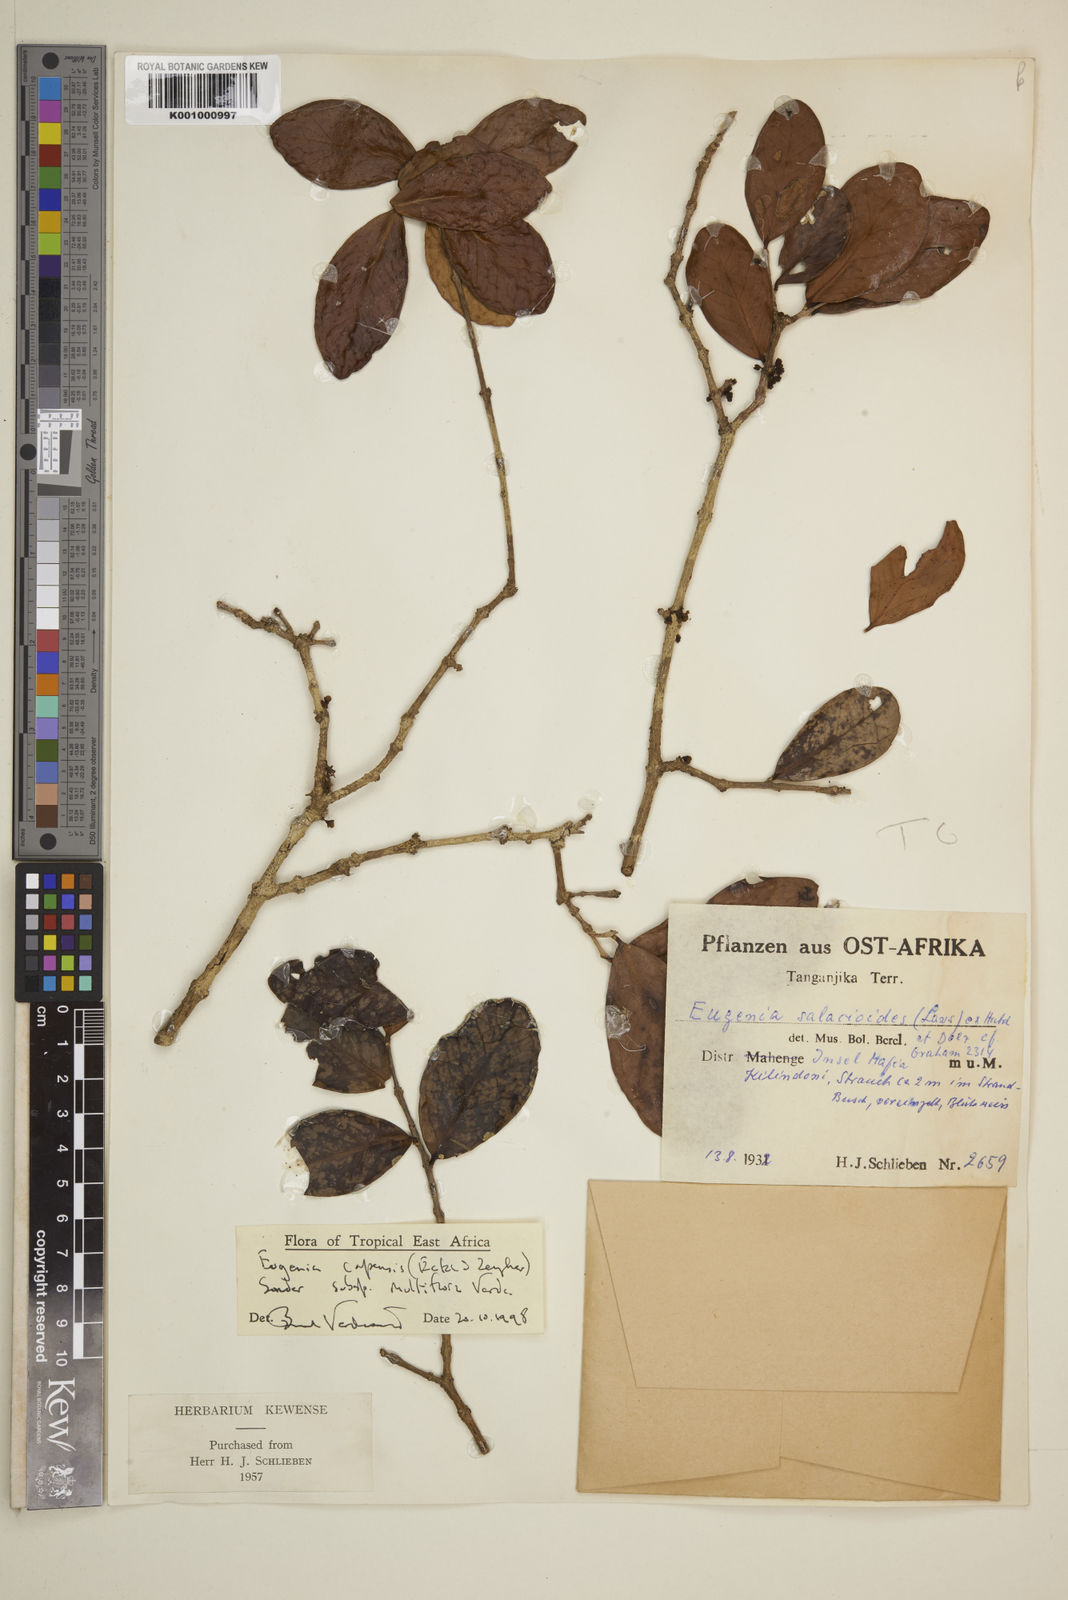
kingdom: Plantae
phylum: Tracheophyta
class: Magnoliopsida
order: Myrtales
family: Myrtaceae
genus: Eugenia
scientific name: Eugenia capensis
